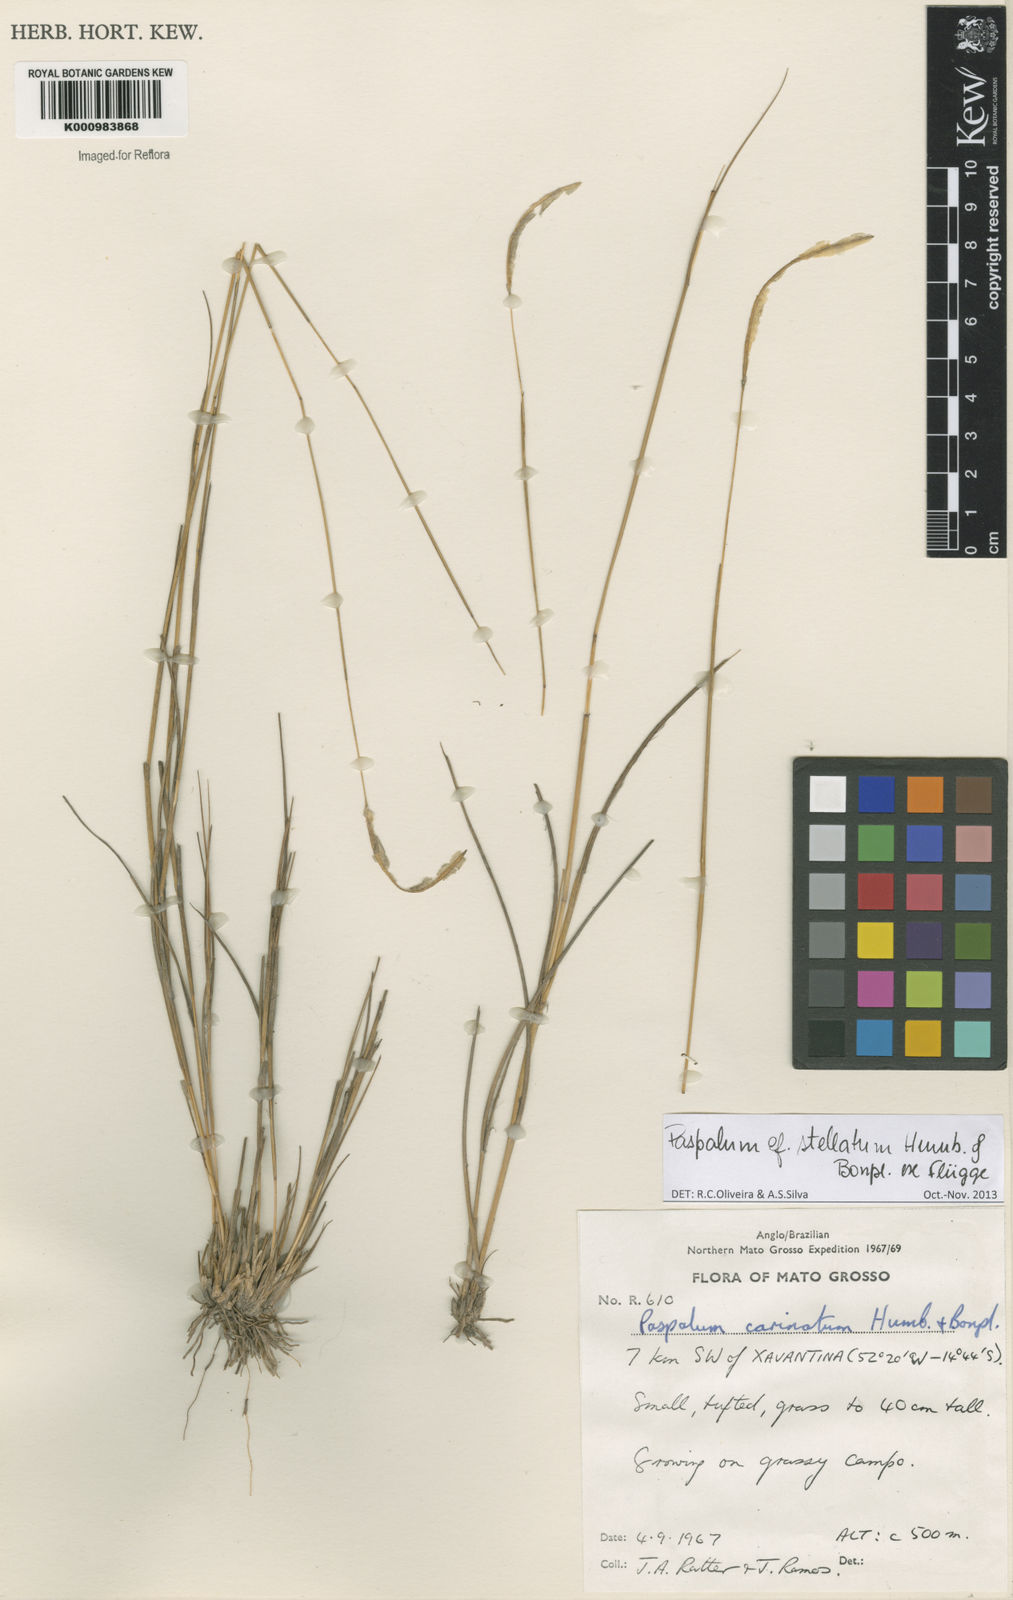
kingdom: Plantae
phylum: Tracheophyta
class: Liliopsida
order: Poales
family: Poaceae
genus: Paspalum
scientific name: Paspalum
